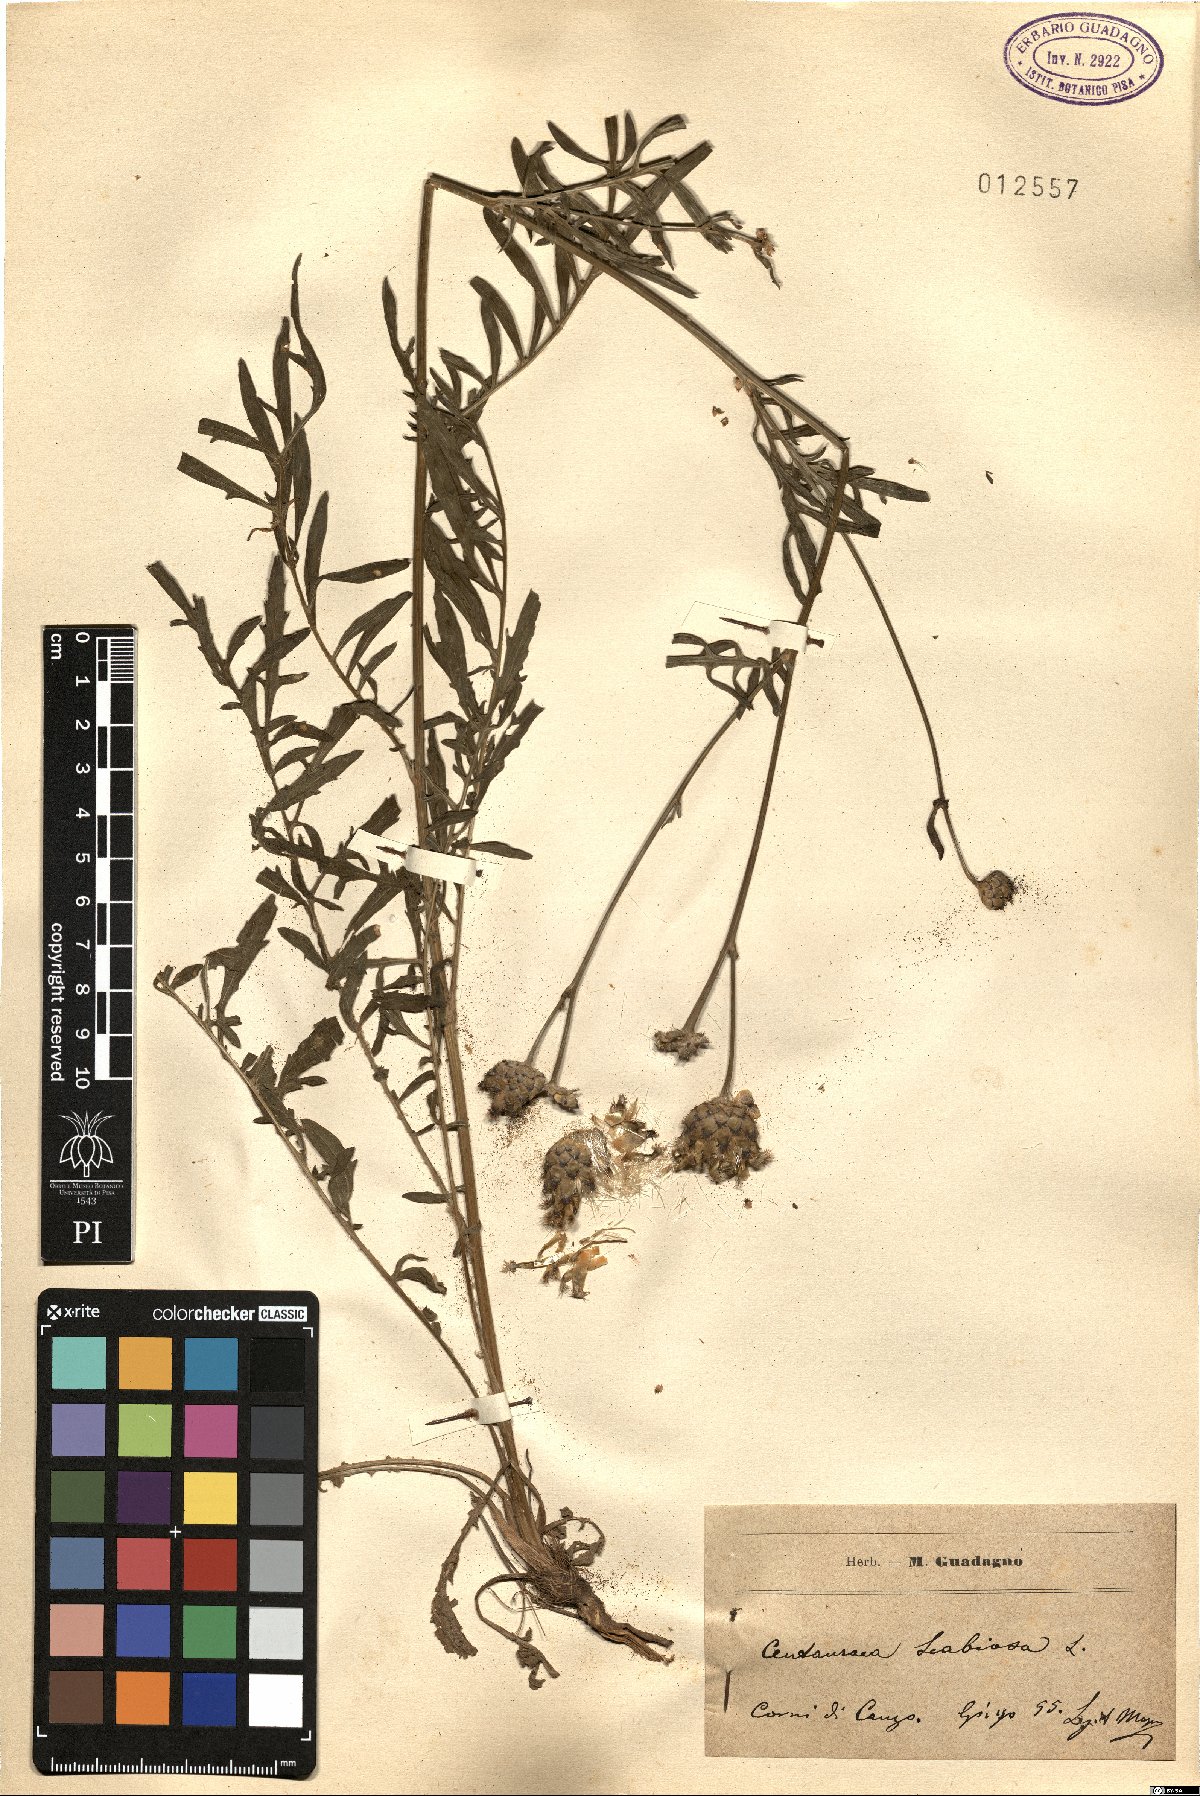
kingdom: Plantae
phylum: Tracheophyta
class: Magnoliopsida
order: Asterales
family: Asteraceae
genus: Centaurea
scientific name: Centaurea scabiosa
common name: Greater knapweed
